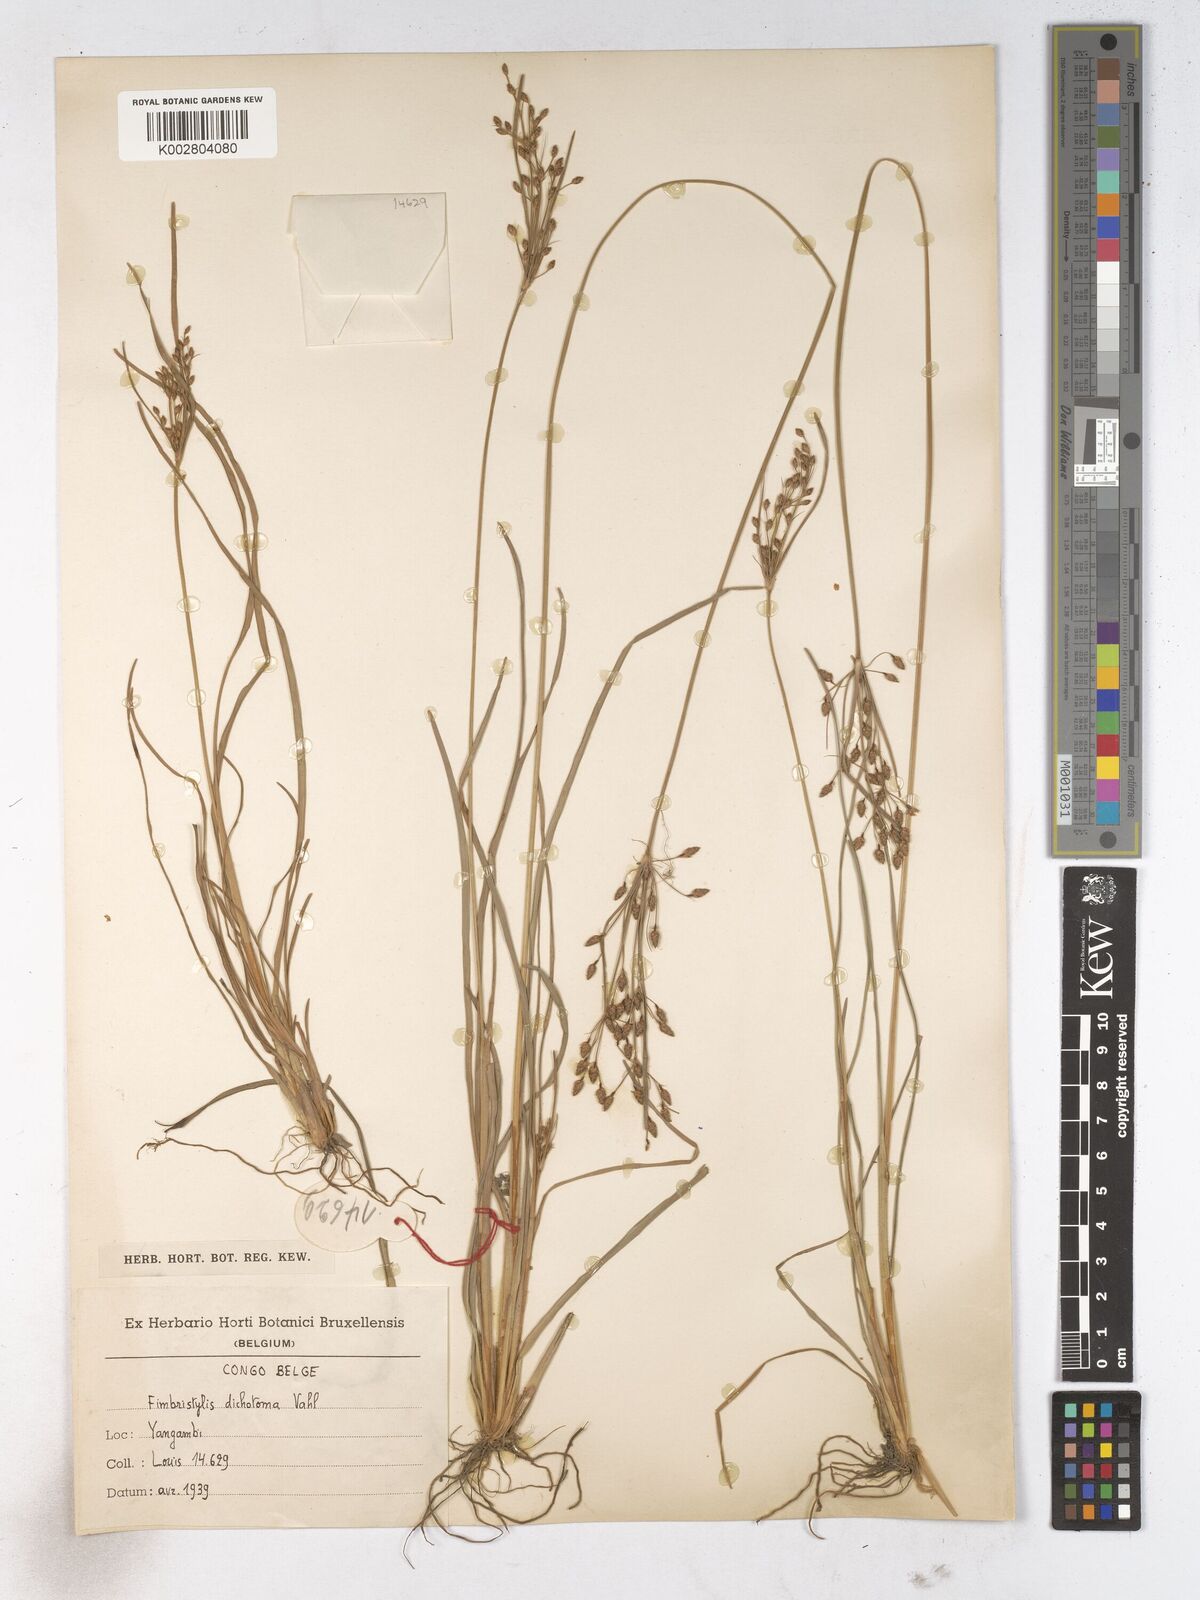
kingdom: Plantae
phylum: Tracheophyta
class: Liliopsida
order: Poales
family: Cyperaceae
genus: Fimbristylis
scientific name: Fimbristylis dichotoma
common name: Forked fimbry
